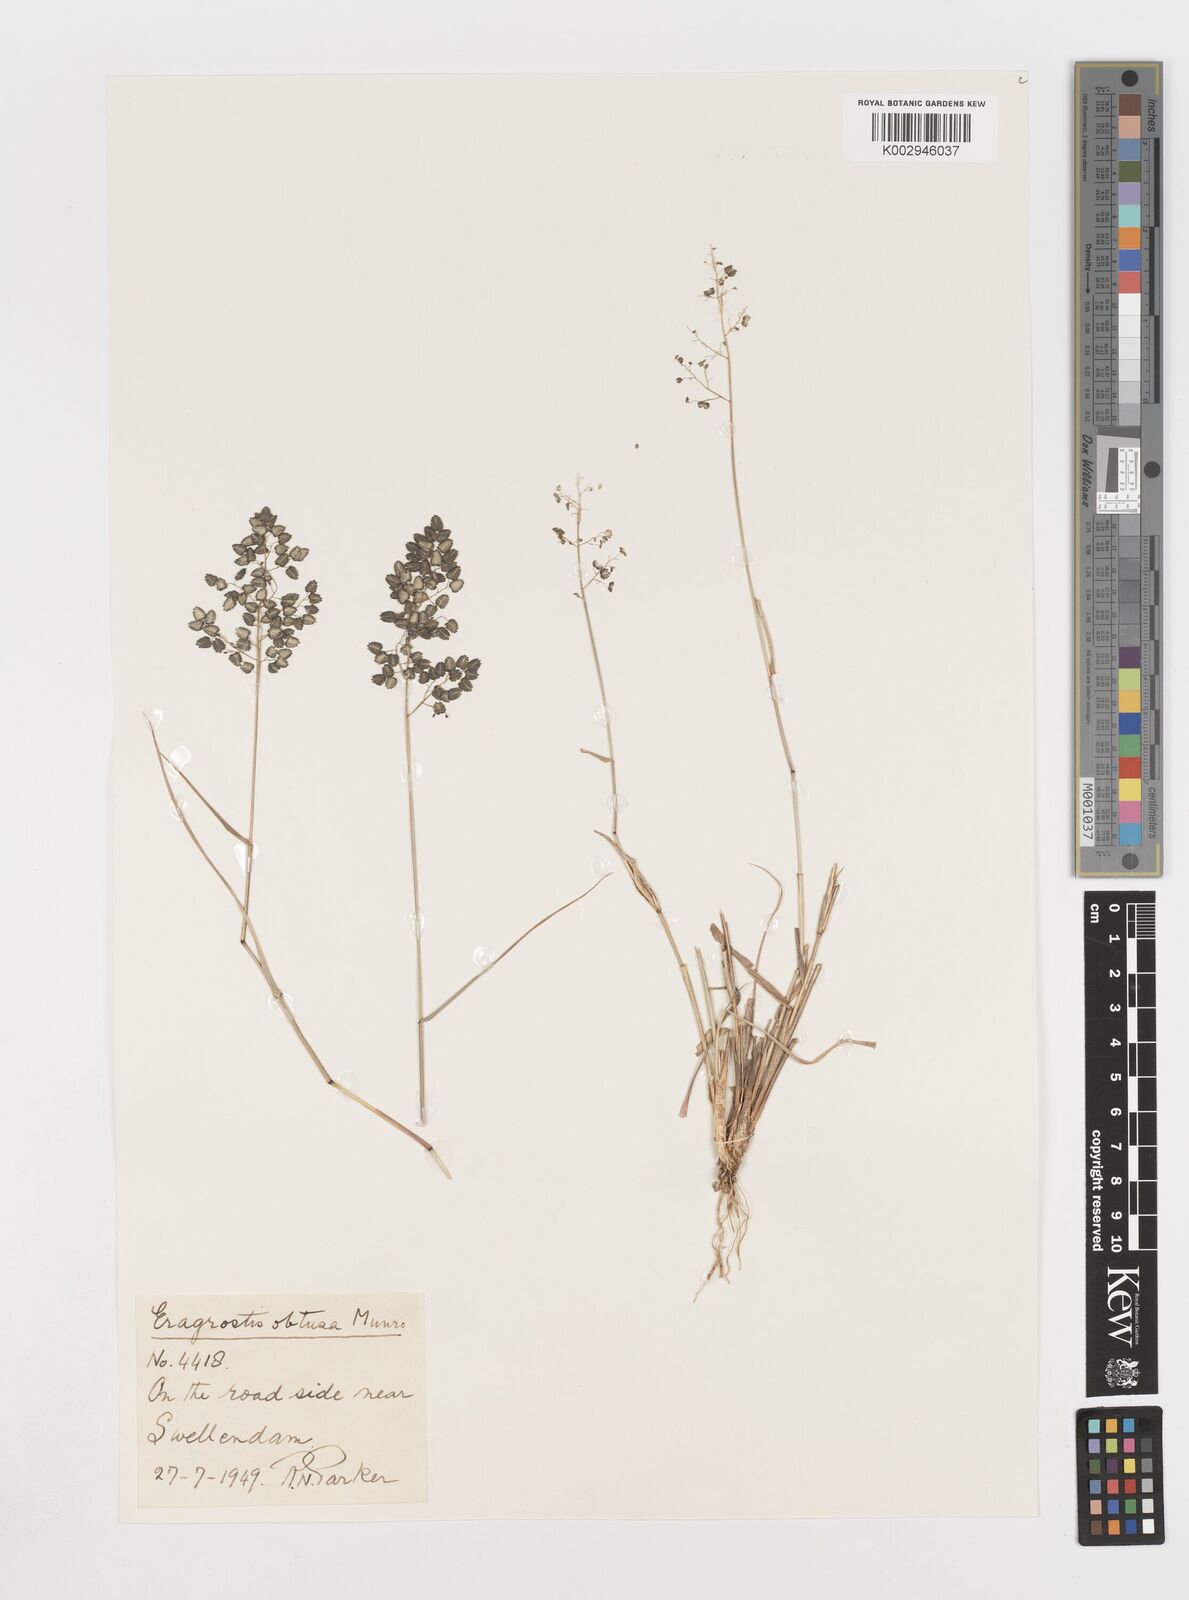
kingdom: Plantae
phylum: Tracheophyta
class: Liliopsida
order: Poales
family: Poaceae
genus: Eragrostis
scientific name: Eragrostis obtusa
